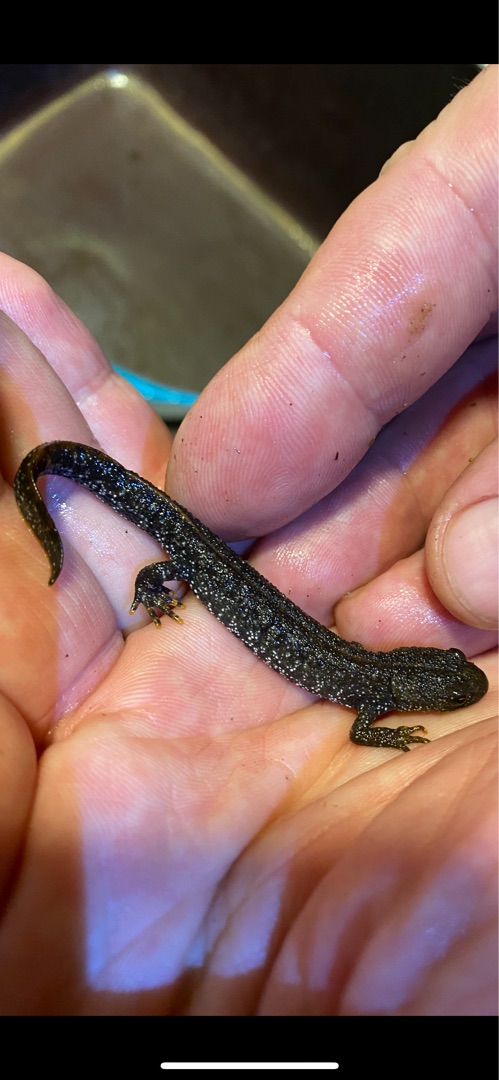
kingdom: Animalia
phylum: Chordata
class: Amphibia
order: Caudata
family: Salamandridae
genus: Triturus
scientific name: Triturus cristatus
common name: Stor vandsalamander
